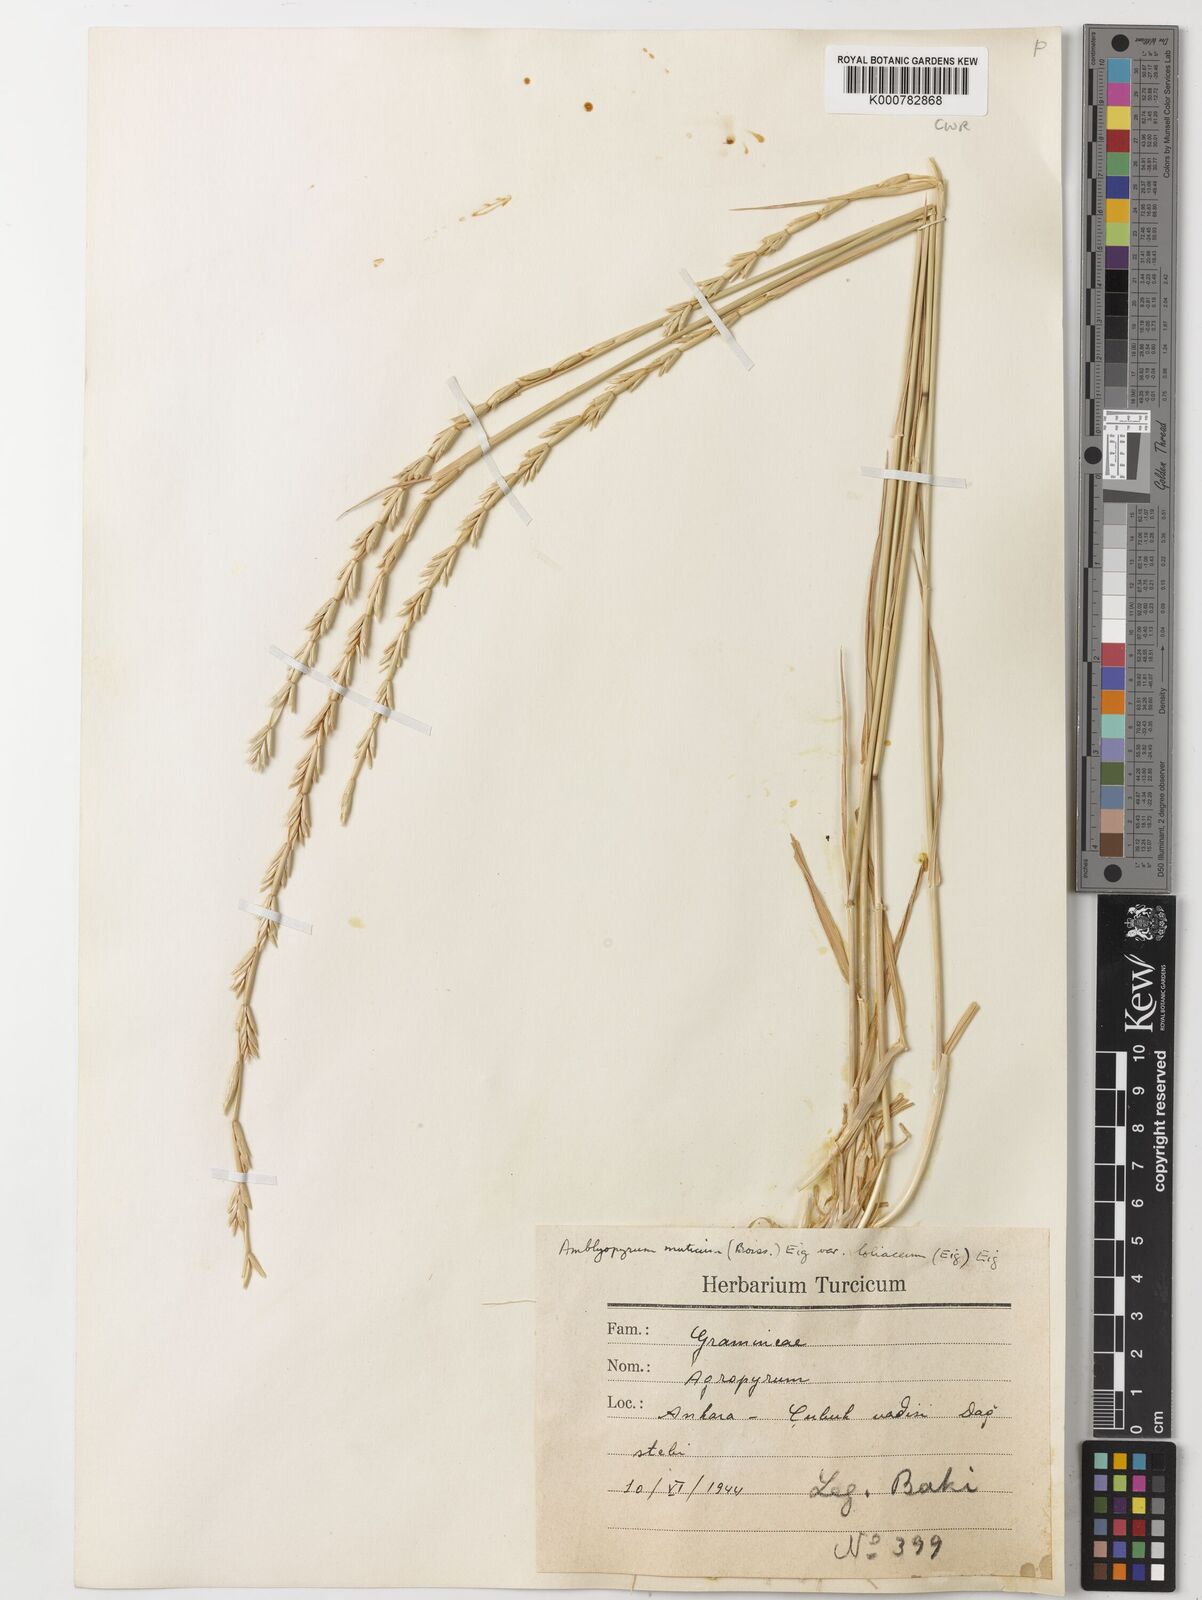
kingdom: Plantae
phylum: Tracheophyta
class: Liliopsida
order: Poales
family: Poaceae
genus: Aegilops
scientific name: Aegilops mutica
